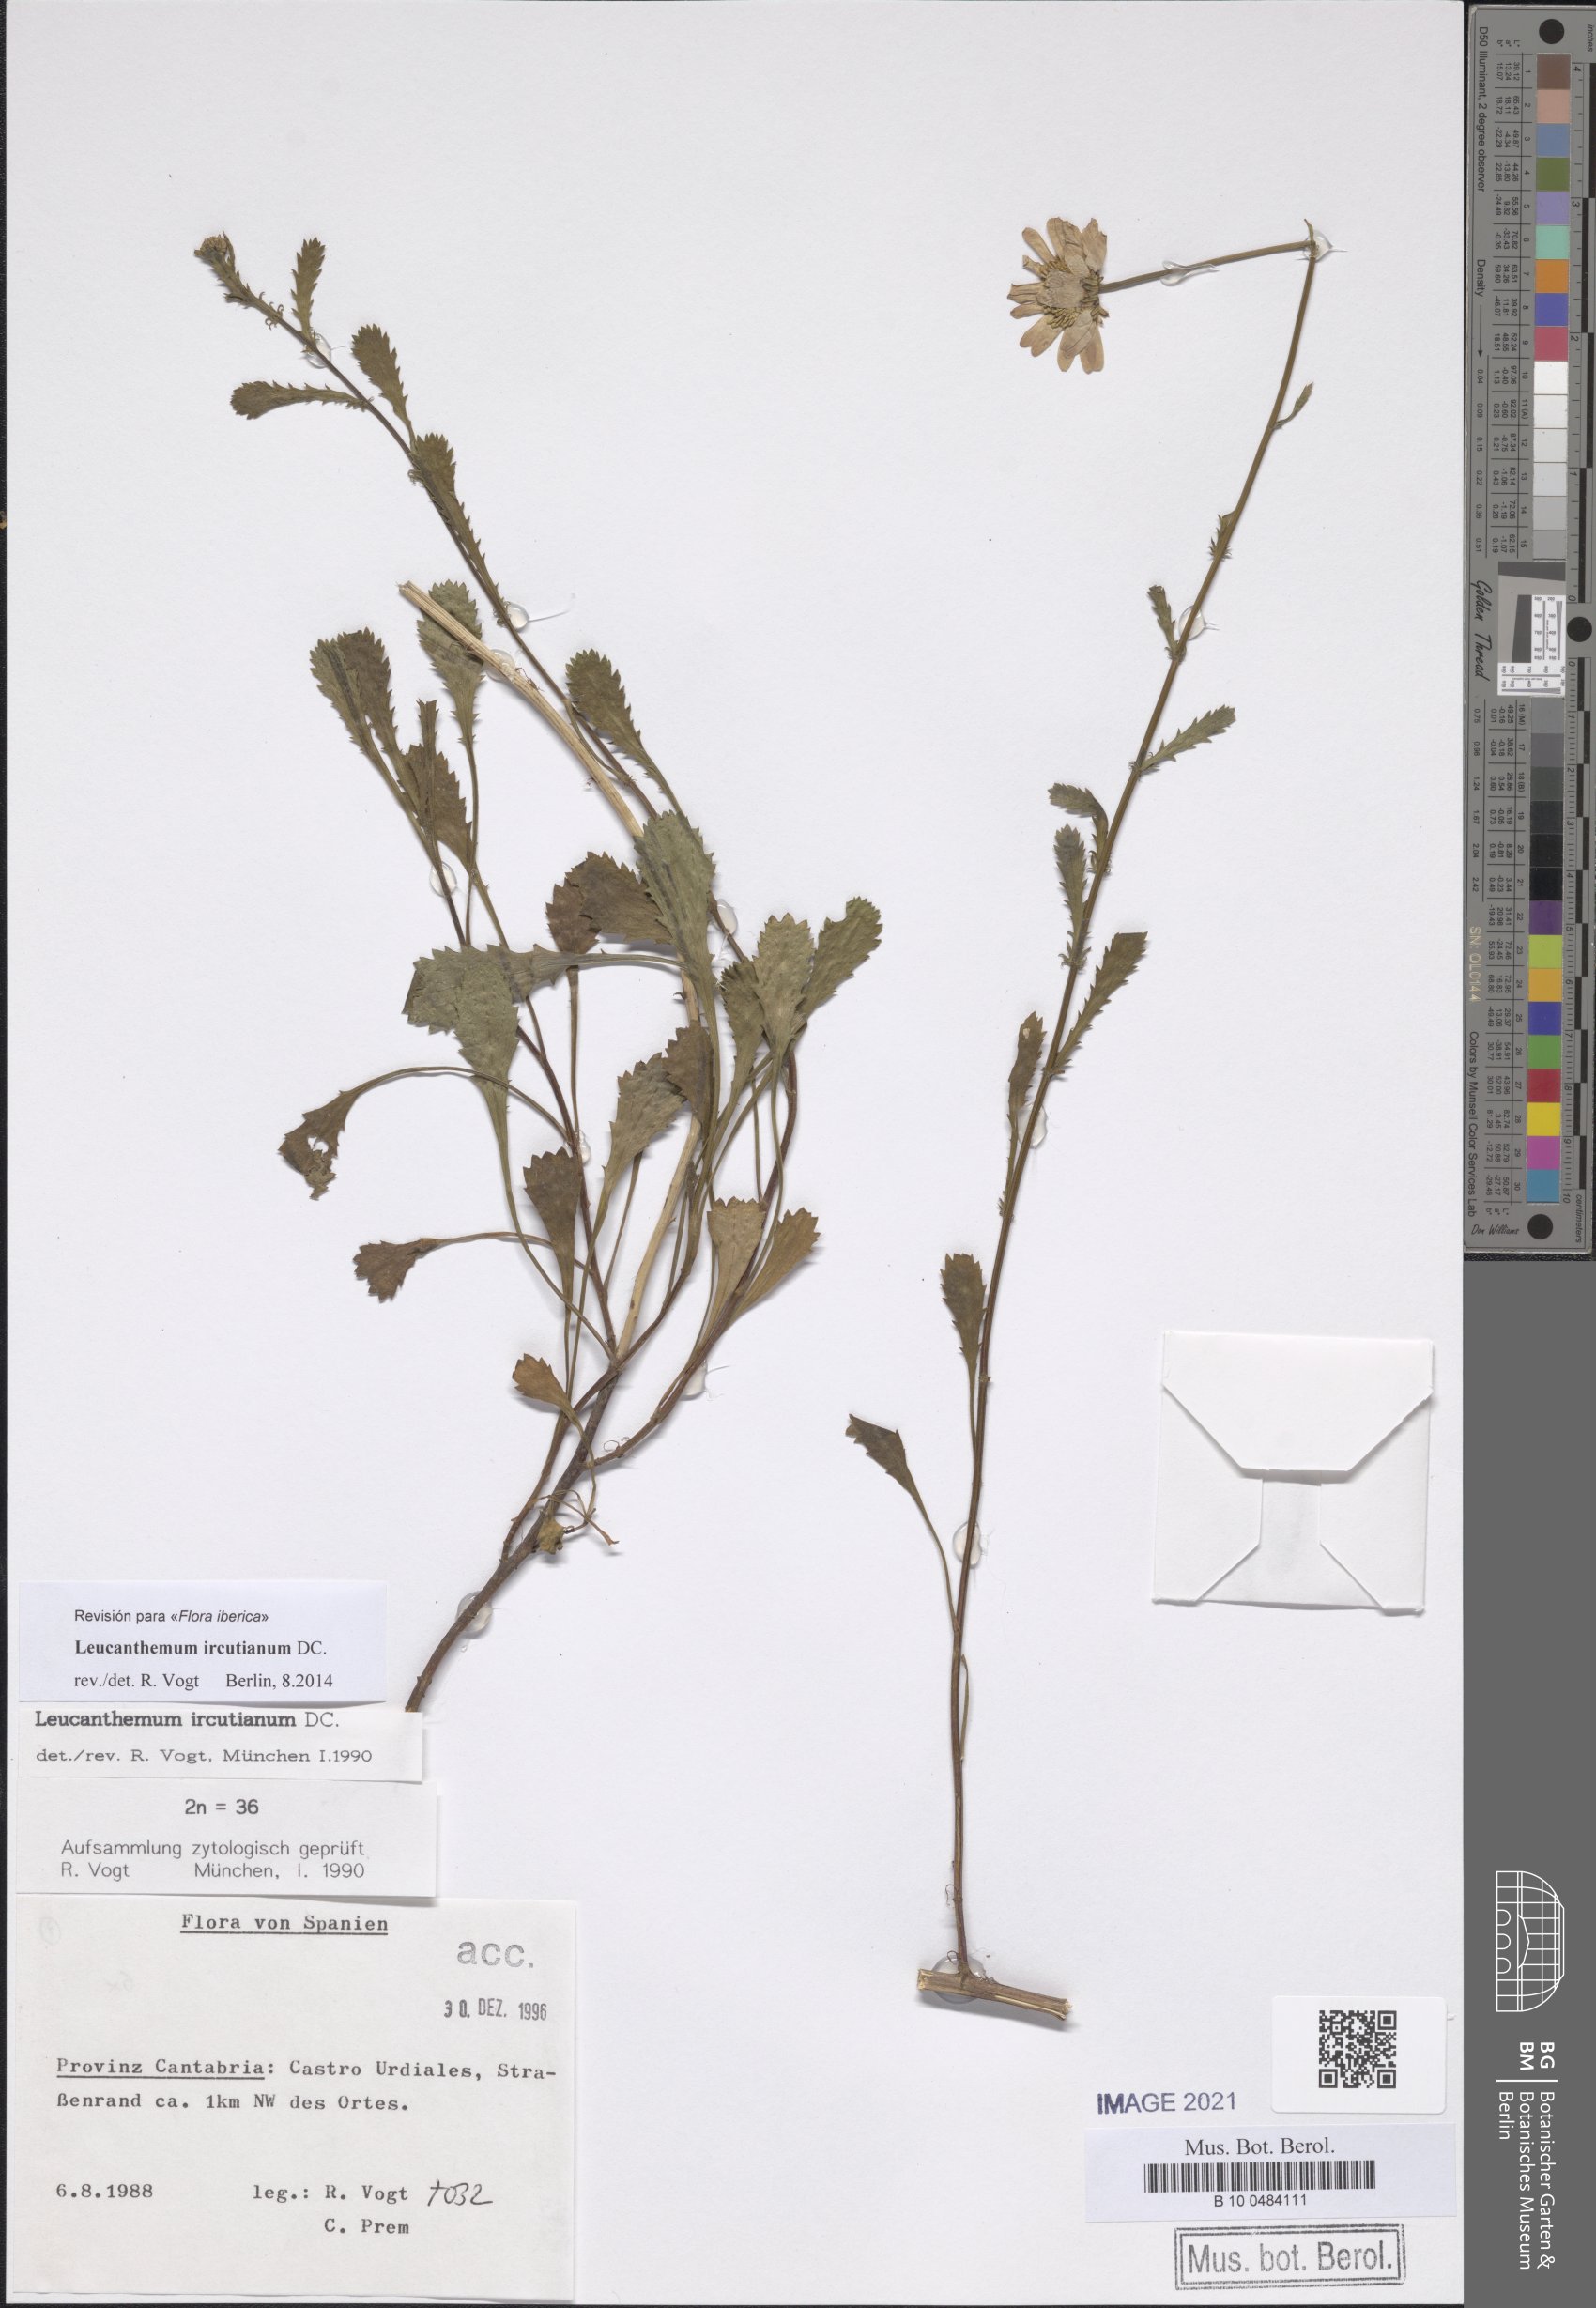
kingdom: Plantae
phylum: Tracheophyta
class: Magnoliopsida
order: Asterales
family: Asteraceae
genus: Leucanthemum
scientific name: Leucanthemum ircutianum
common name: Daisy
